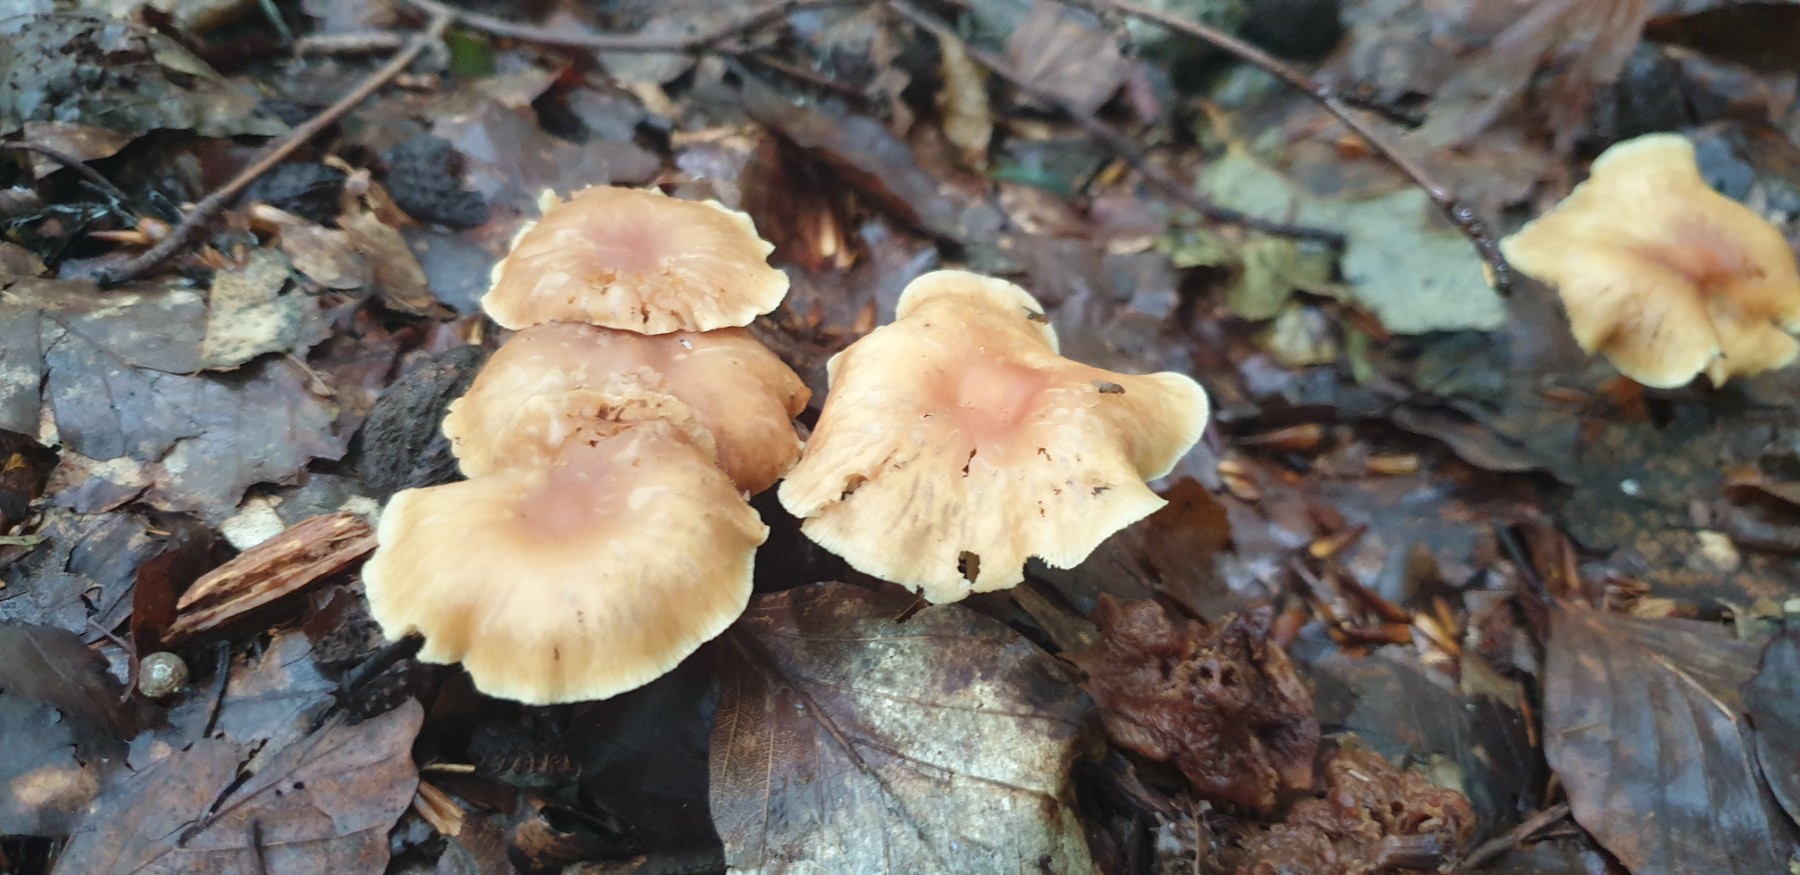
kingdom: Fungi
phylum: Basidiomycota
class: Agaricomycetes
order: Agaricales
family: Omphalotaceae
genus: Gymnopus
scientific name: Gymnopus dryophilus
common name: løv-fladhat
